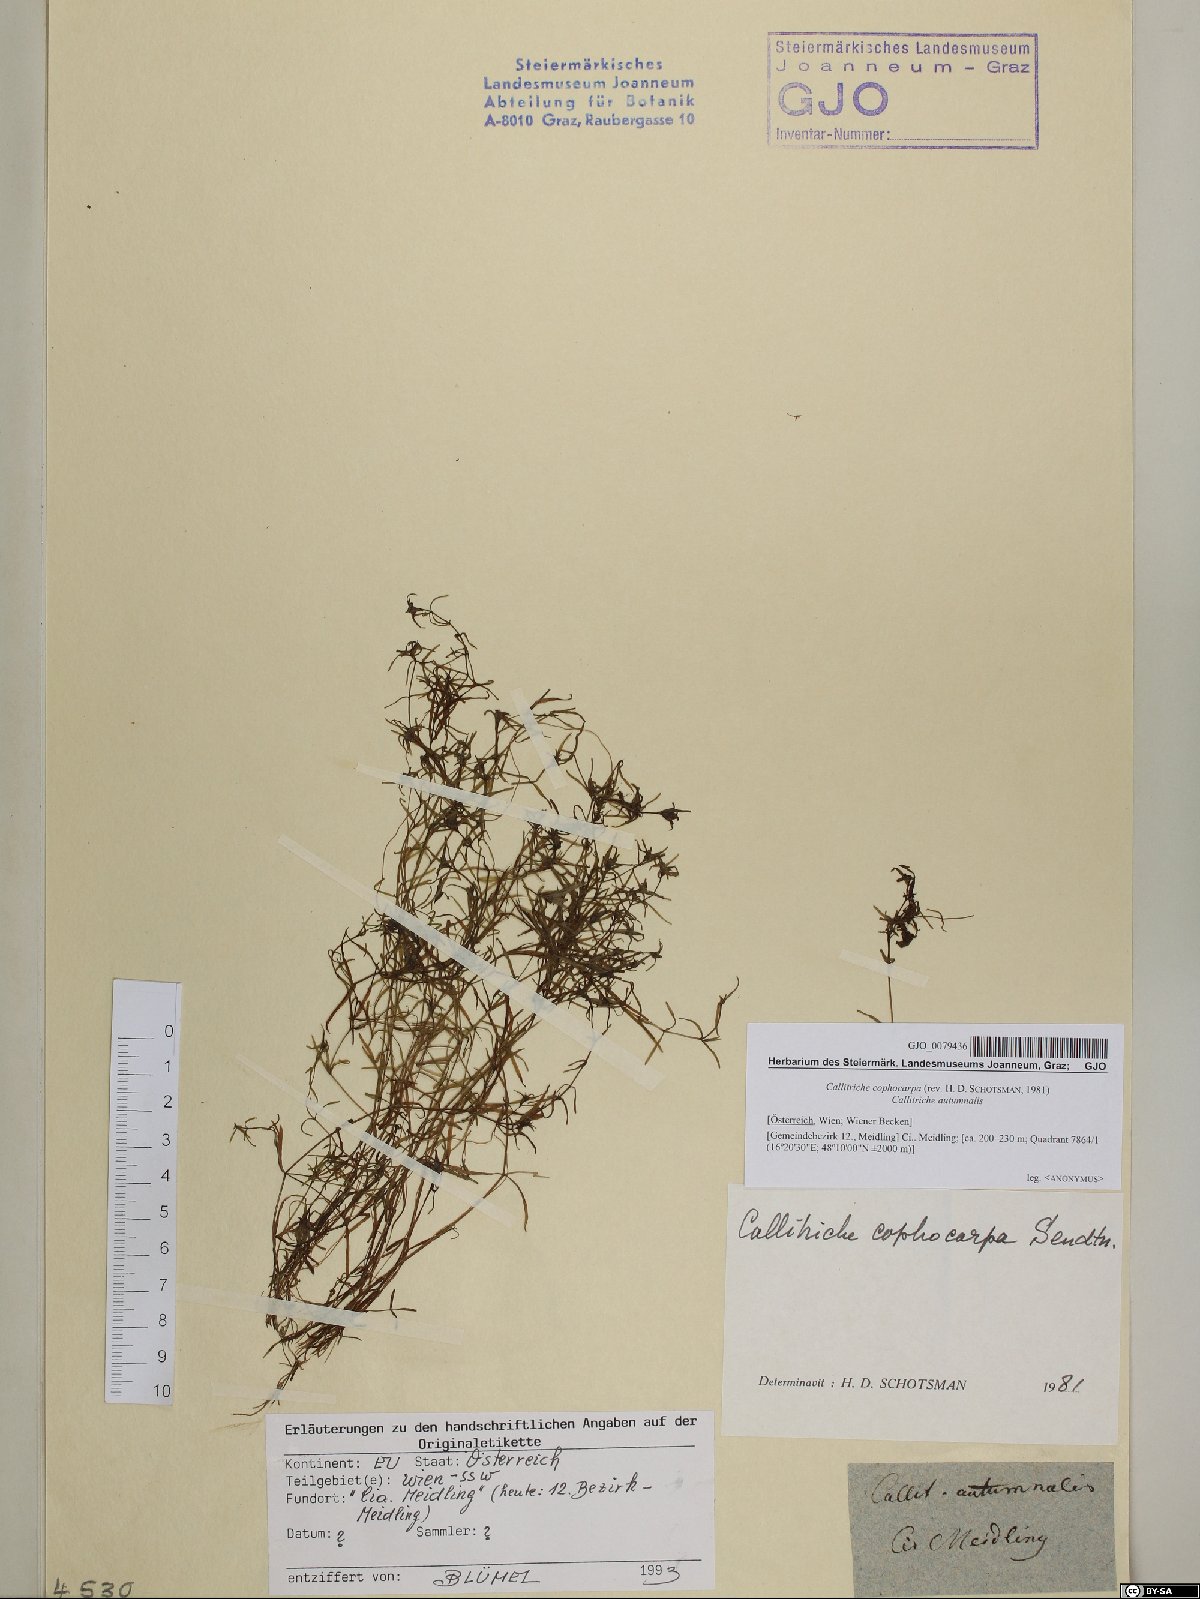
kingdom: Plantae
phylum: Tracheophyta
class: Magnoliopsida
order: Lamiales
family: Plantaginaceae
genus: Callitriche
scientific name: Callitriche cophocarpa
